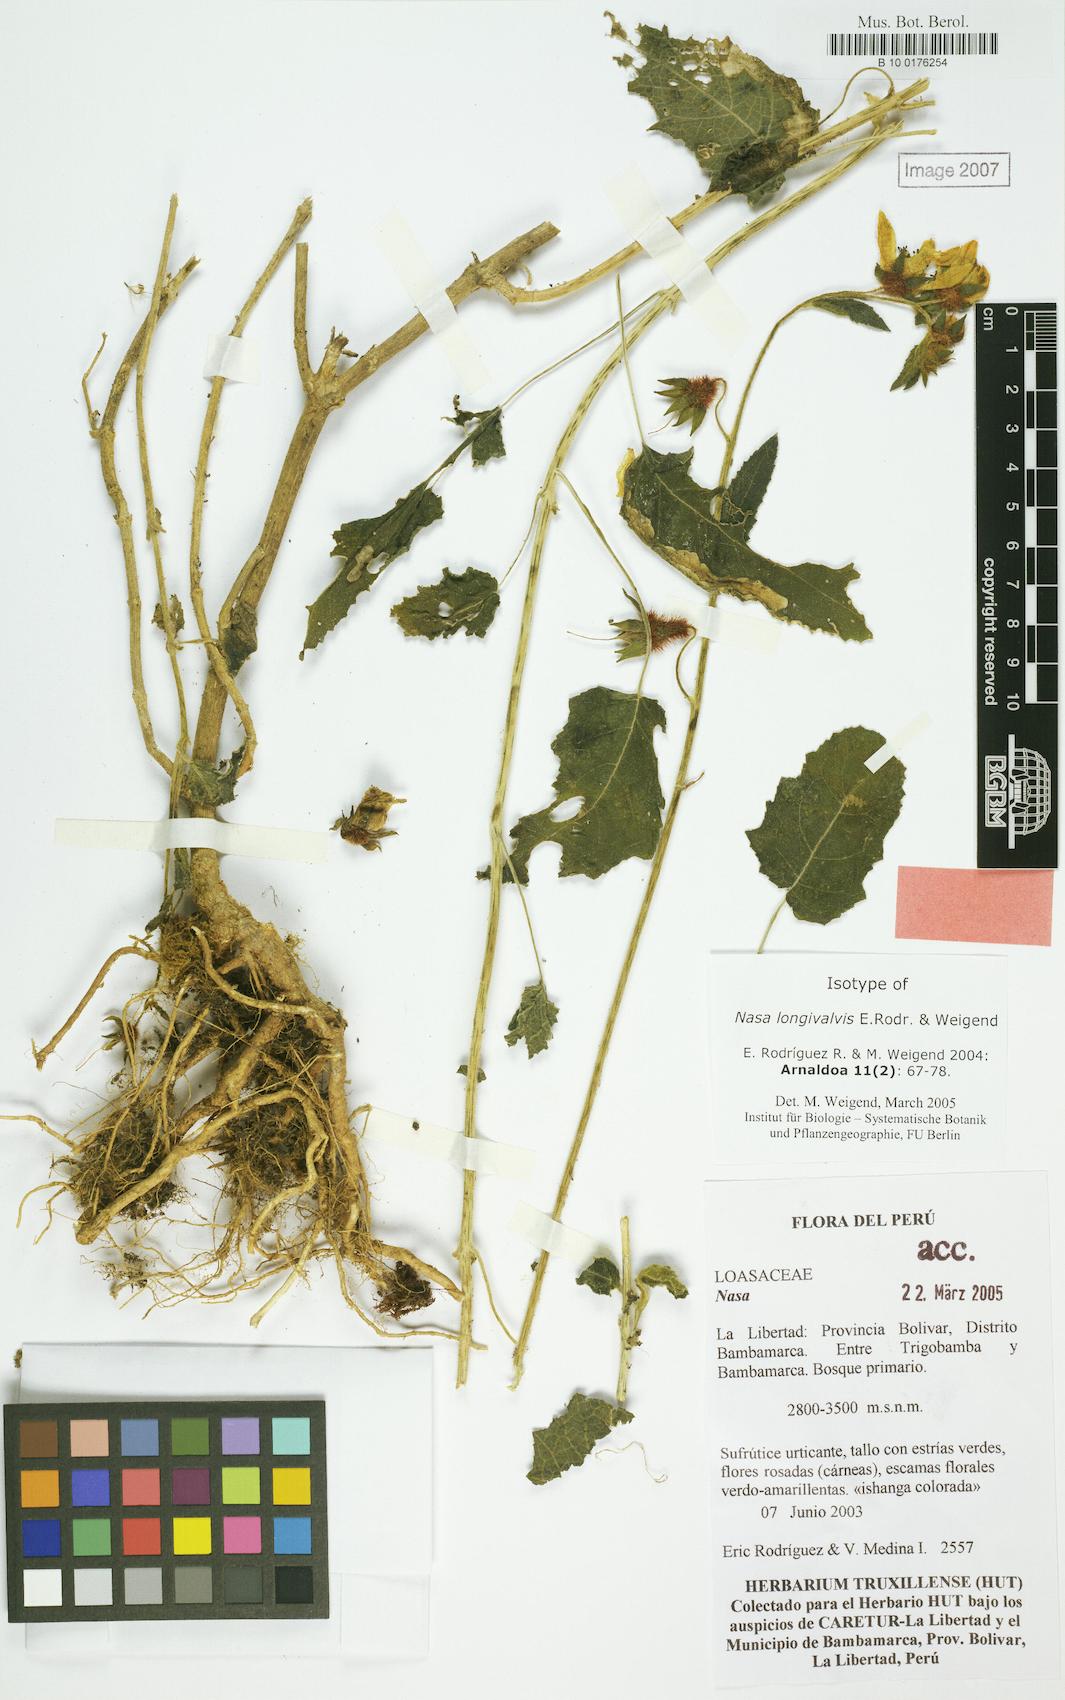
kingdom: Plantae
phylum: Tracheophyta
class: Magnoliopsida
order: Cornales
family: Loasaceae
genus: Nasa
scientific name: Nasa longivalvis
